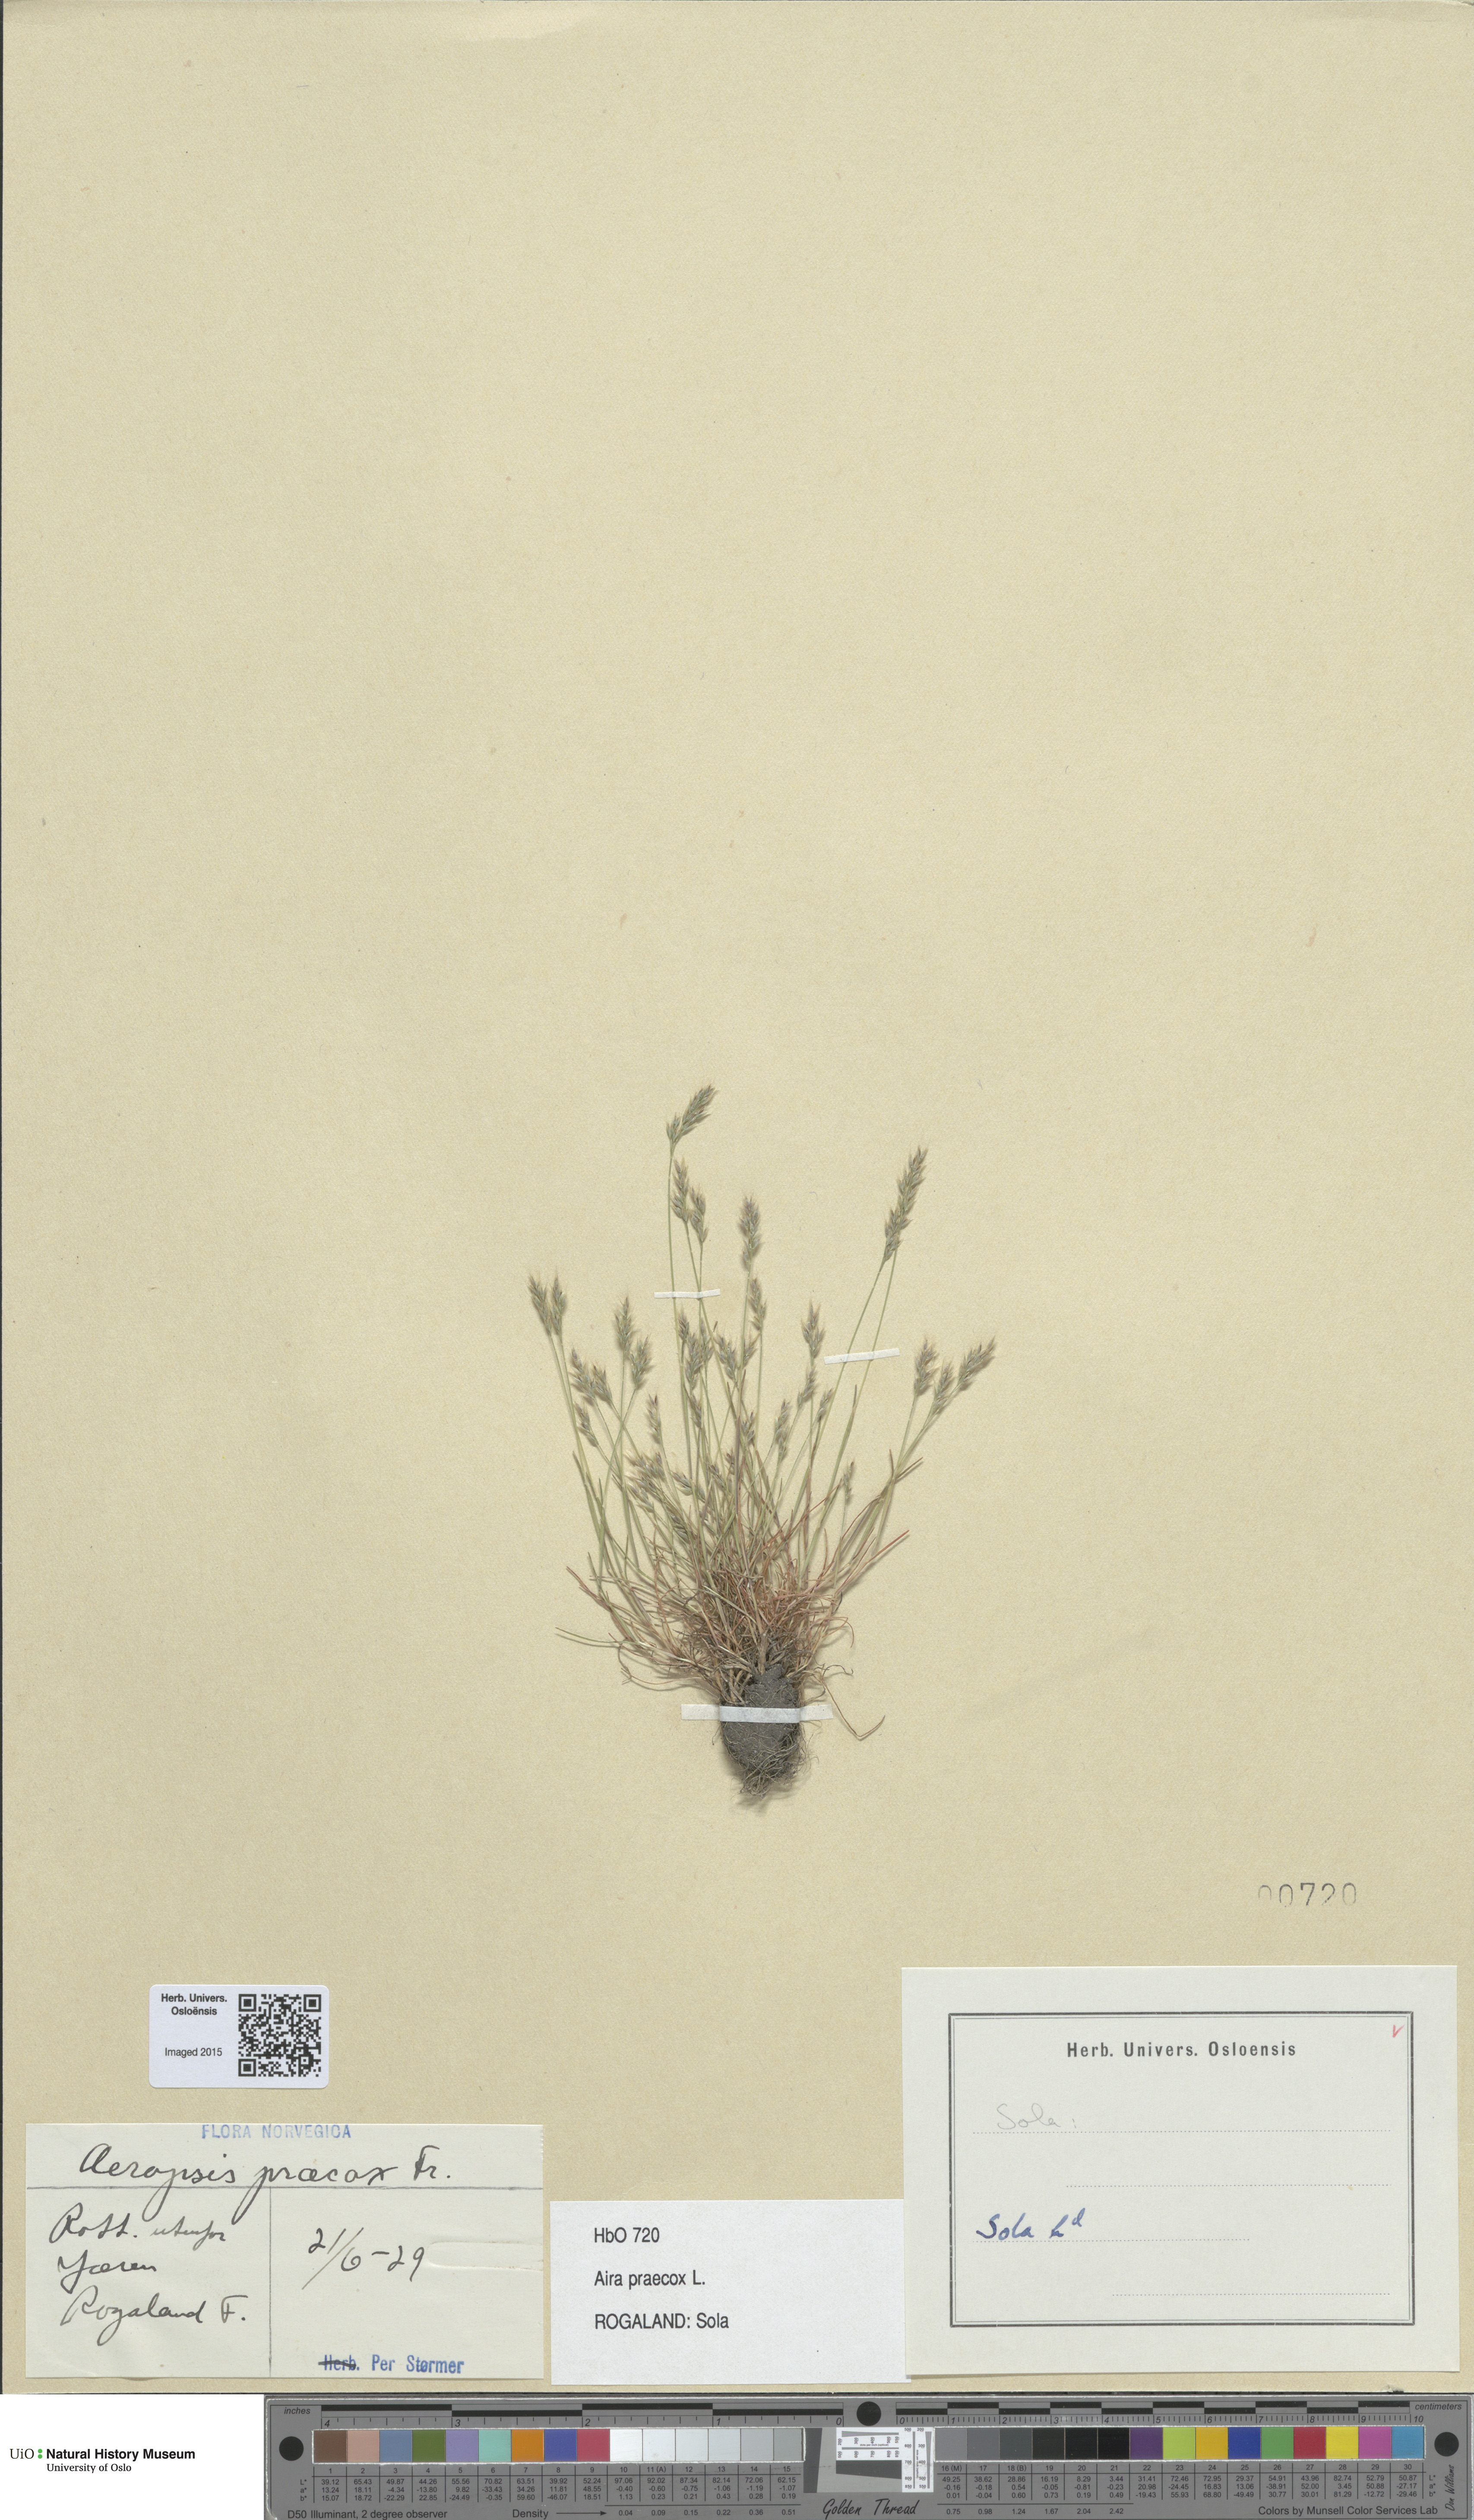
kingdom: Plantae
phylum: Tracheophyta
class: Liliopsida
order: Poales
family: Poaceae
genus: Aira
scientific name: Aira praecox
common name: Early hair-grass
